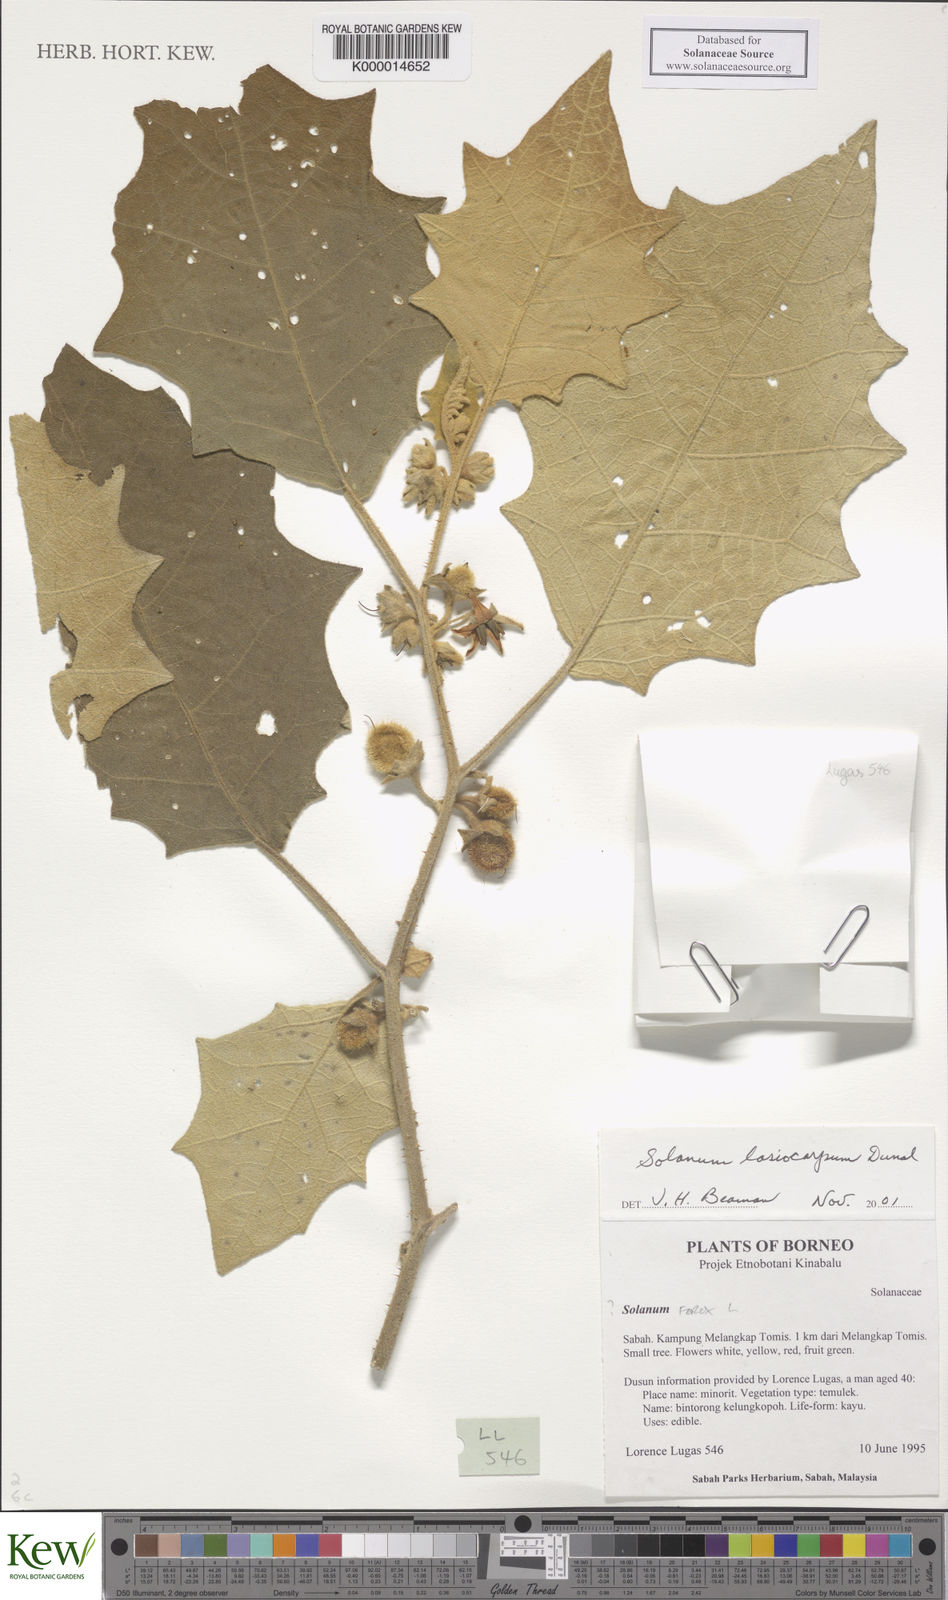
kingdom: Plantae
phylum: Tracheophyta
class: Magnoliopsida
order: Solanales
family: Solanaceae
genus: Solanum
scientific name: Solanum lasiocarpum
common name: Indian nightshade
